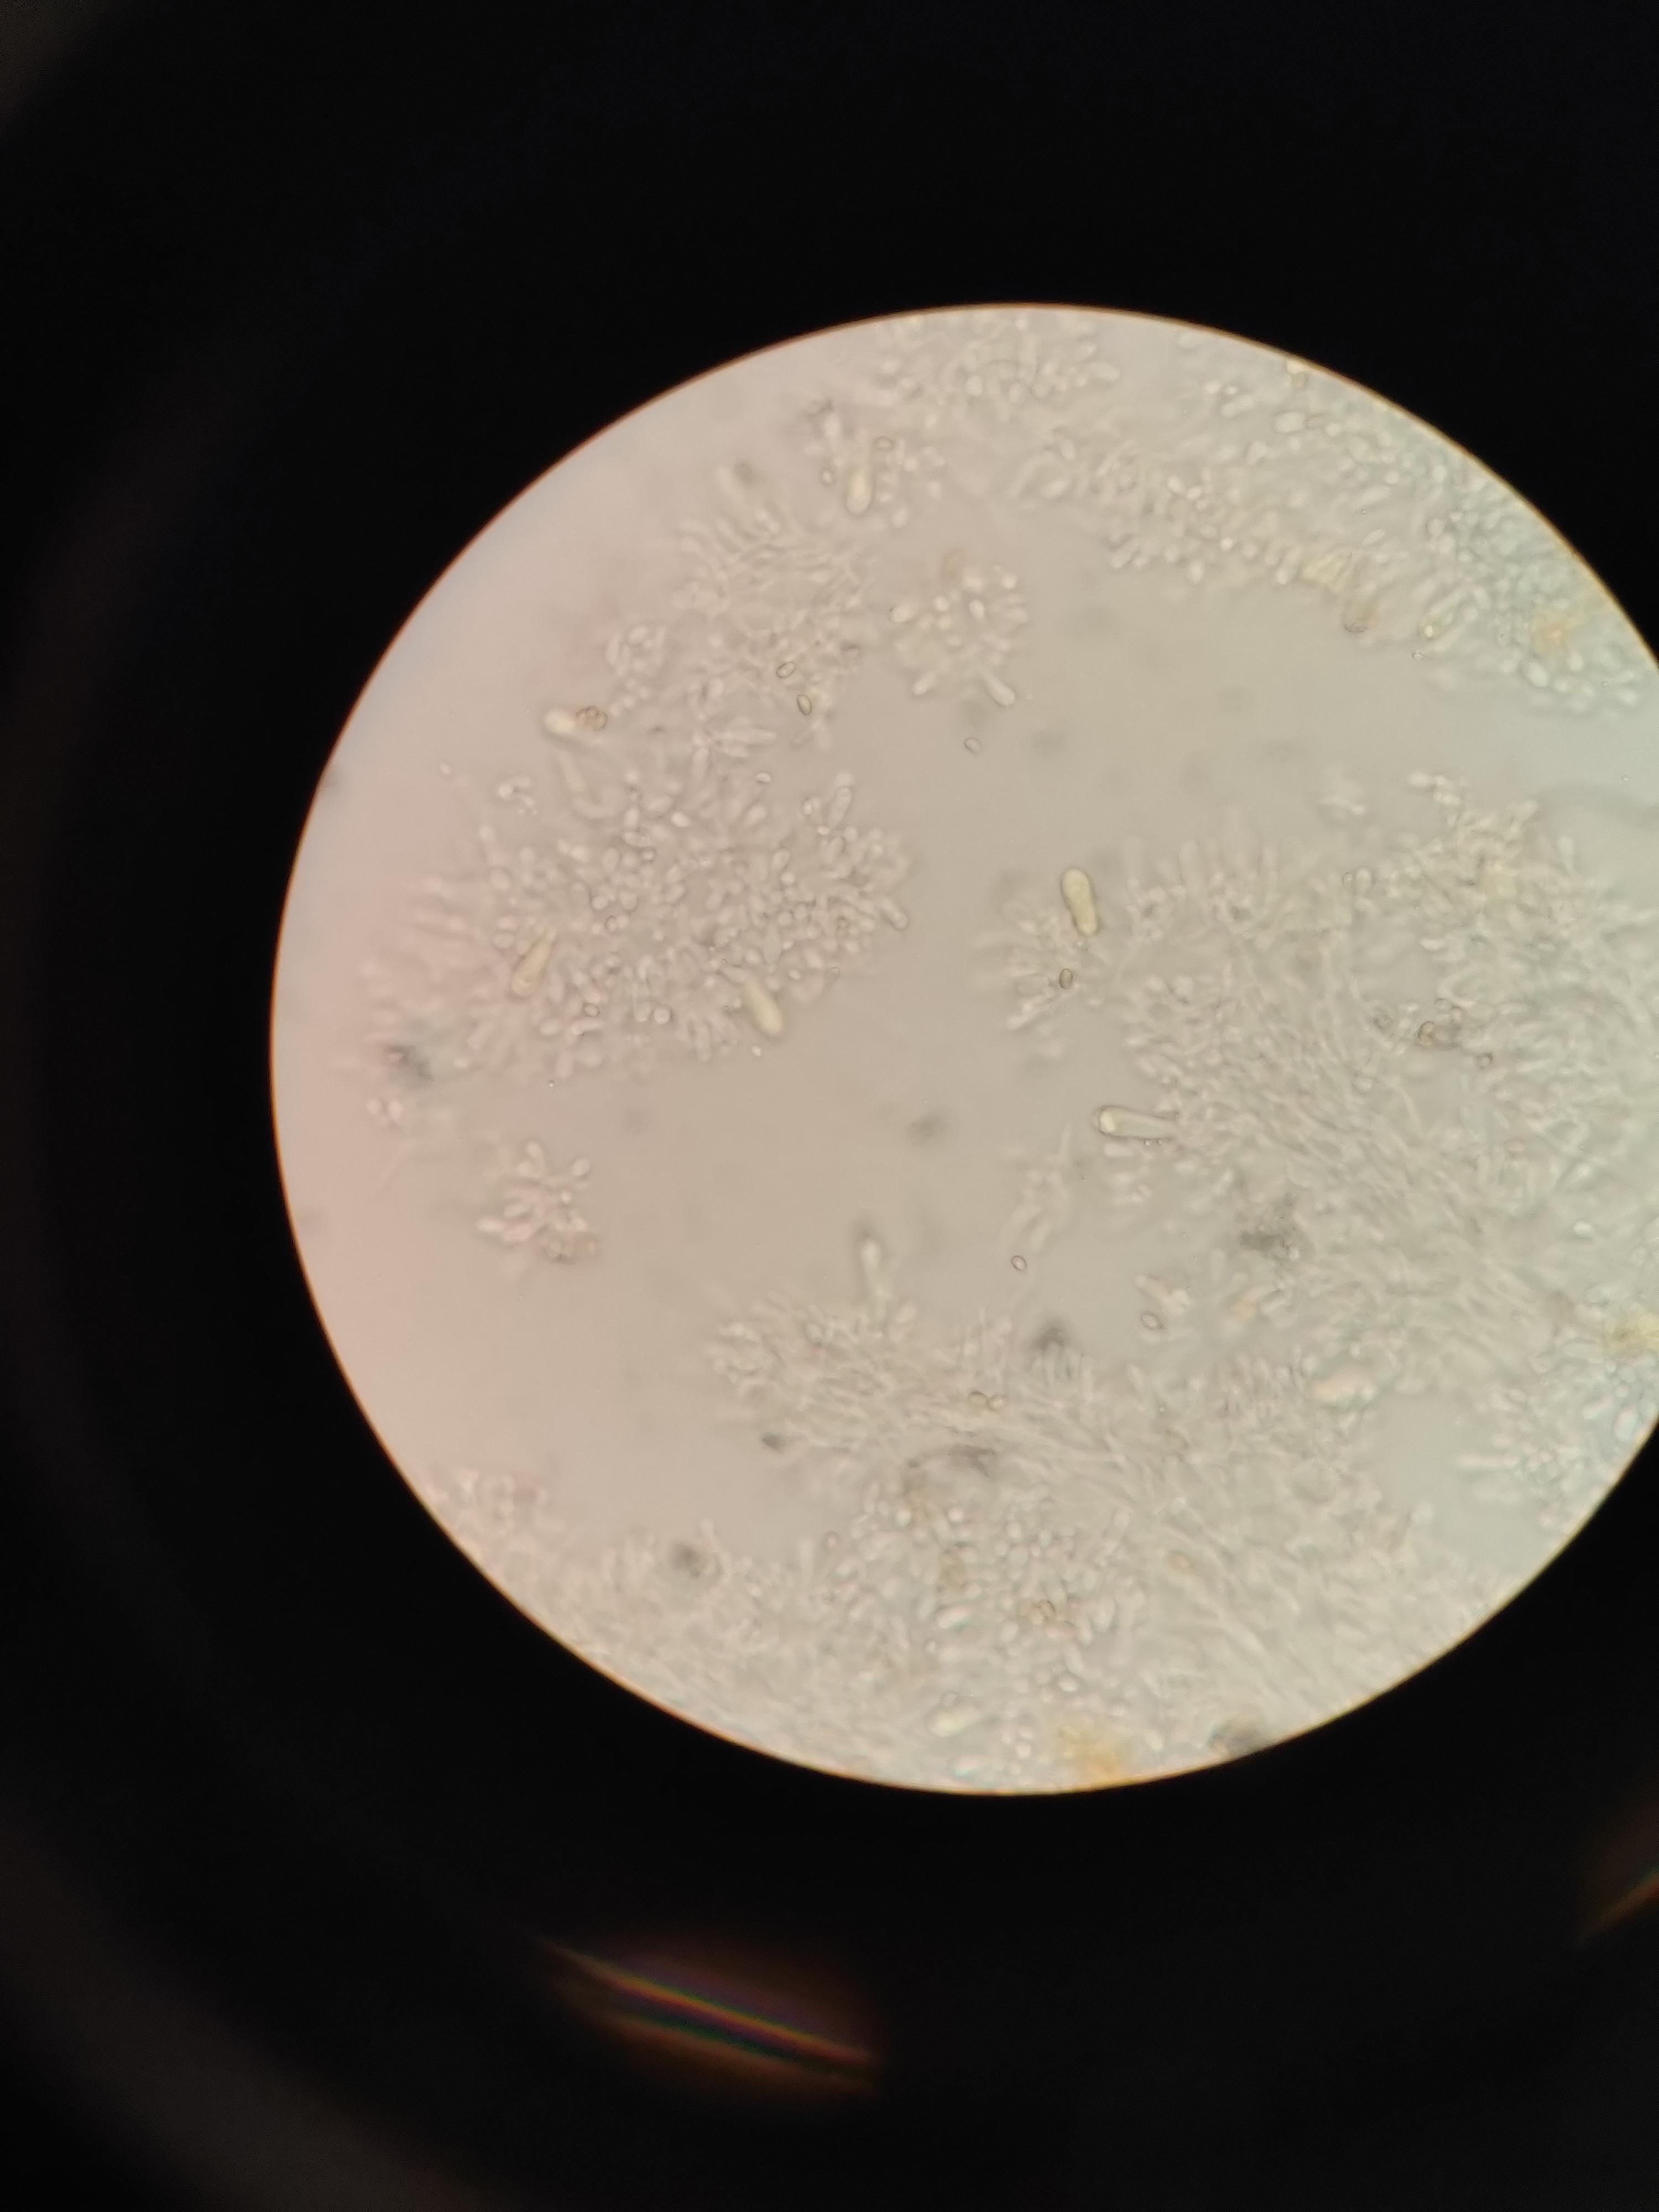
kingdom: Fungi
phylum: Basidiomycota
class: Agaricomycetes
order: Agaricales
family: Strophariaceae
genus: Hypholoma
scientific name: Hypholoma fasciculare
